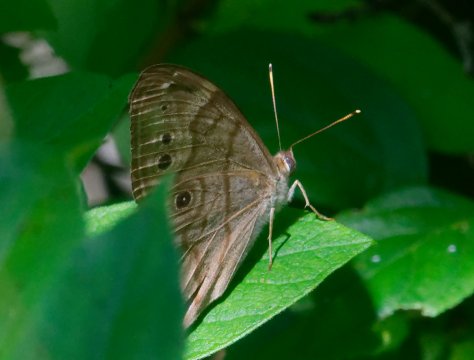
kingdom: Animalia
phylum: Arthropoda
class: Insecta
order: Lepidoptera
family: Nymphalidae
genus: Lethe
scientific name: Lethe anthedon
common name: Northern Pearly-Eye
